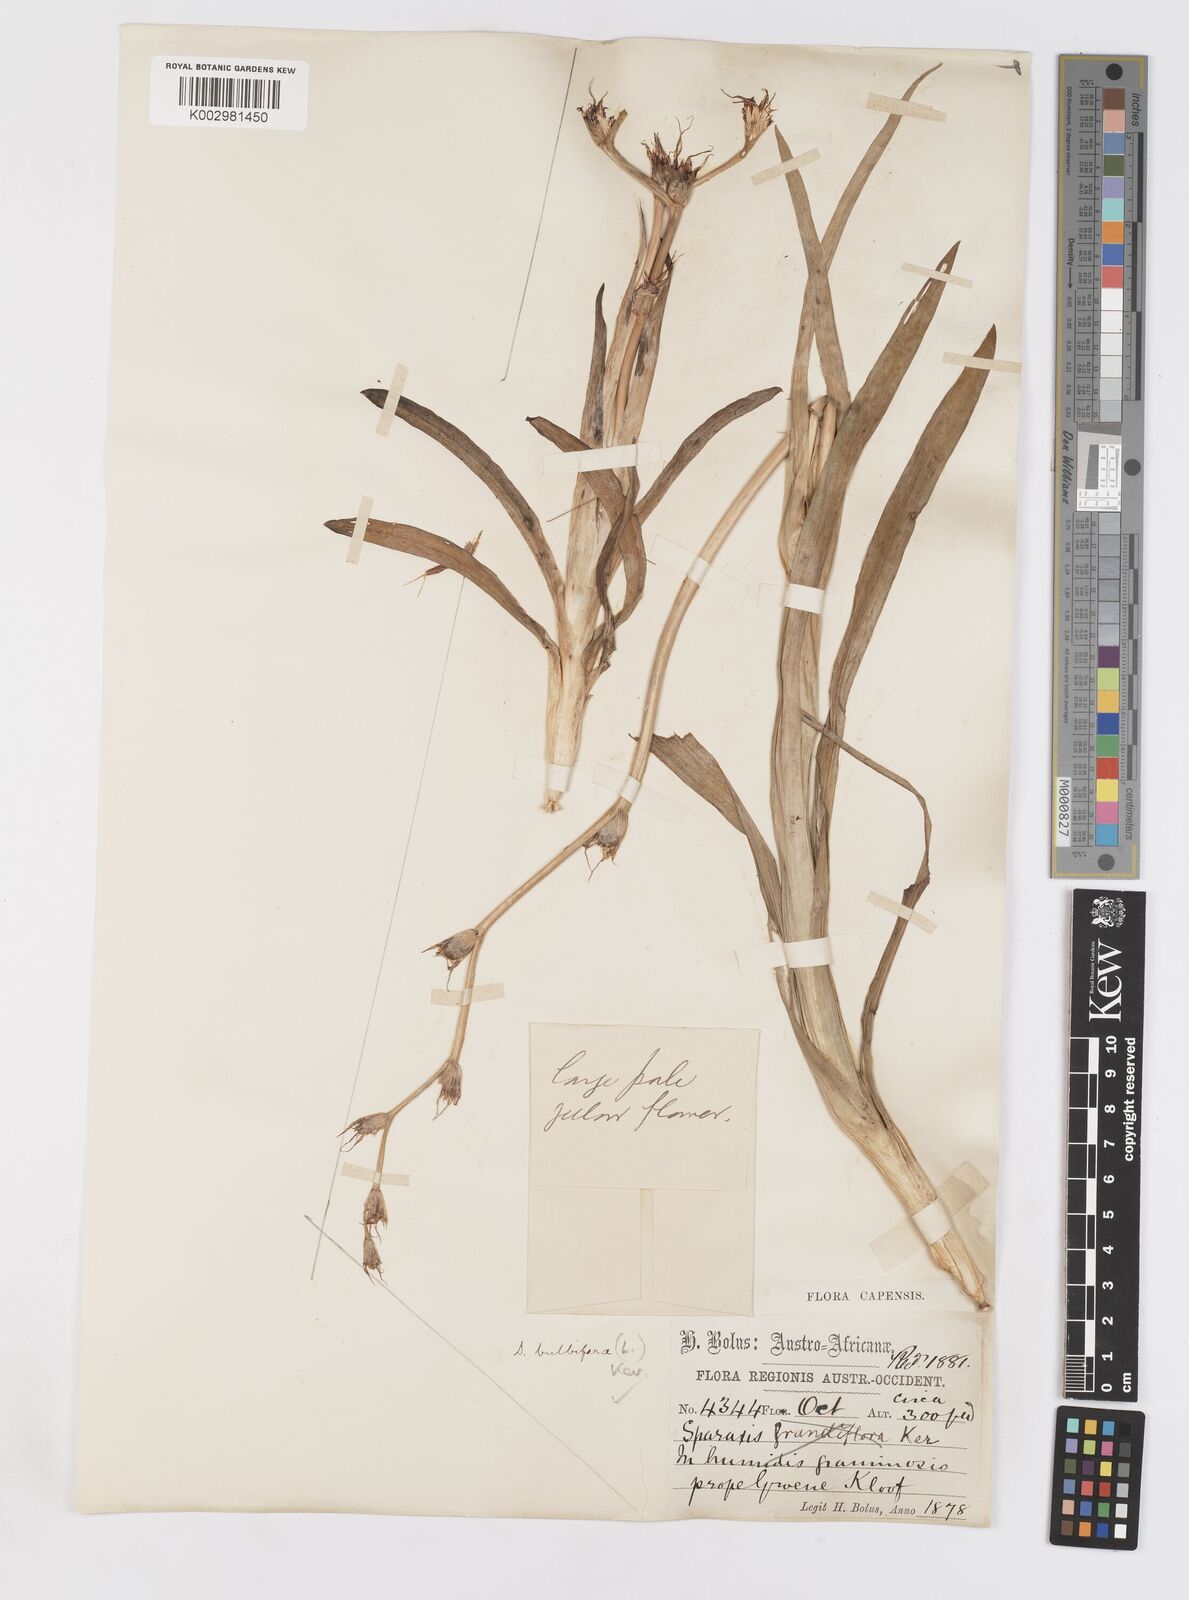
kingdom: Plantae
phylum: Tracheophyta
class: Liliopsida
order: Asparagales
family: Iridaceae
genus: Sparaxis
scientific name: Sparaxis bulbifera
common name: Harlequin-flower
